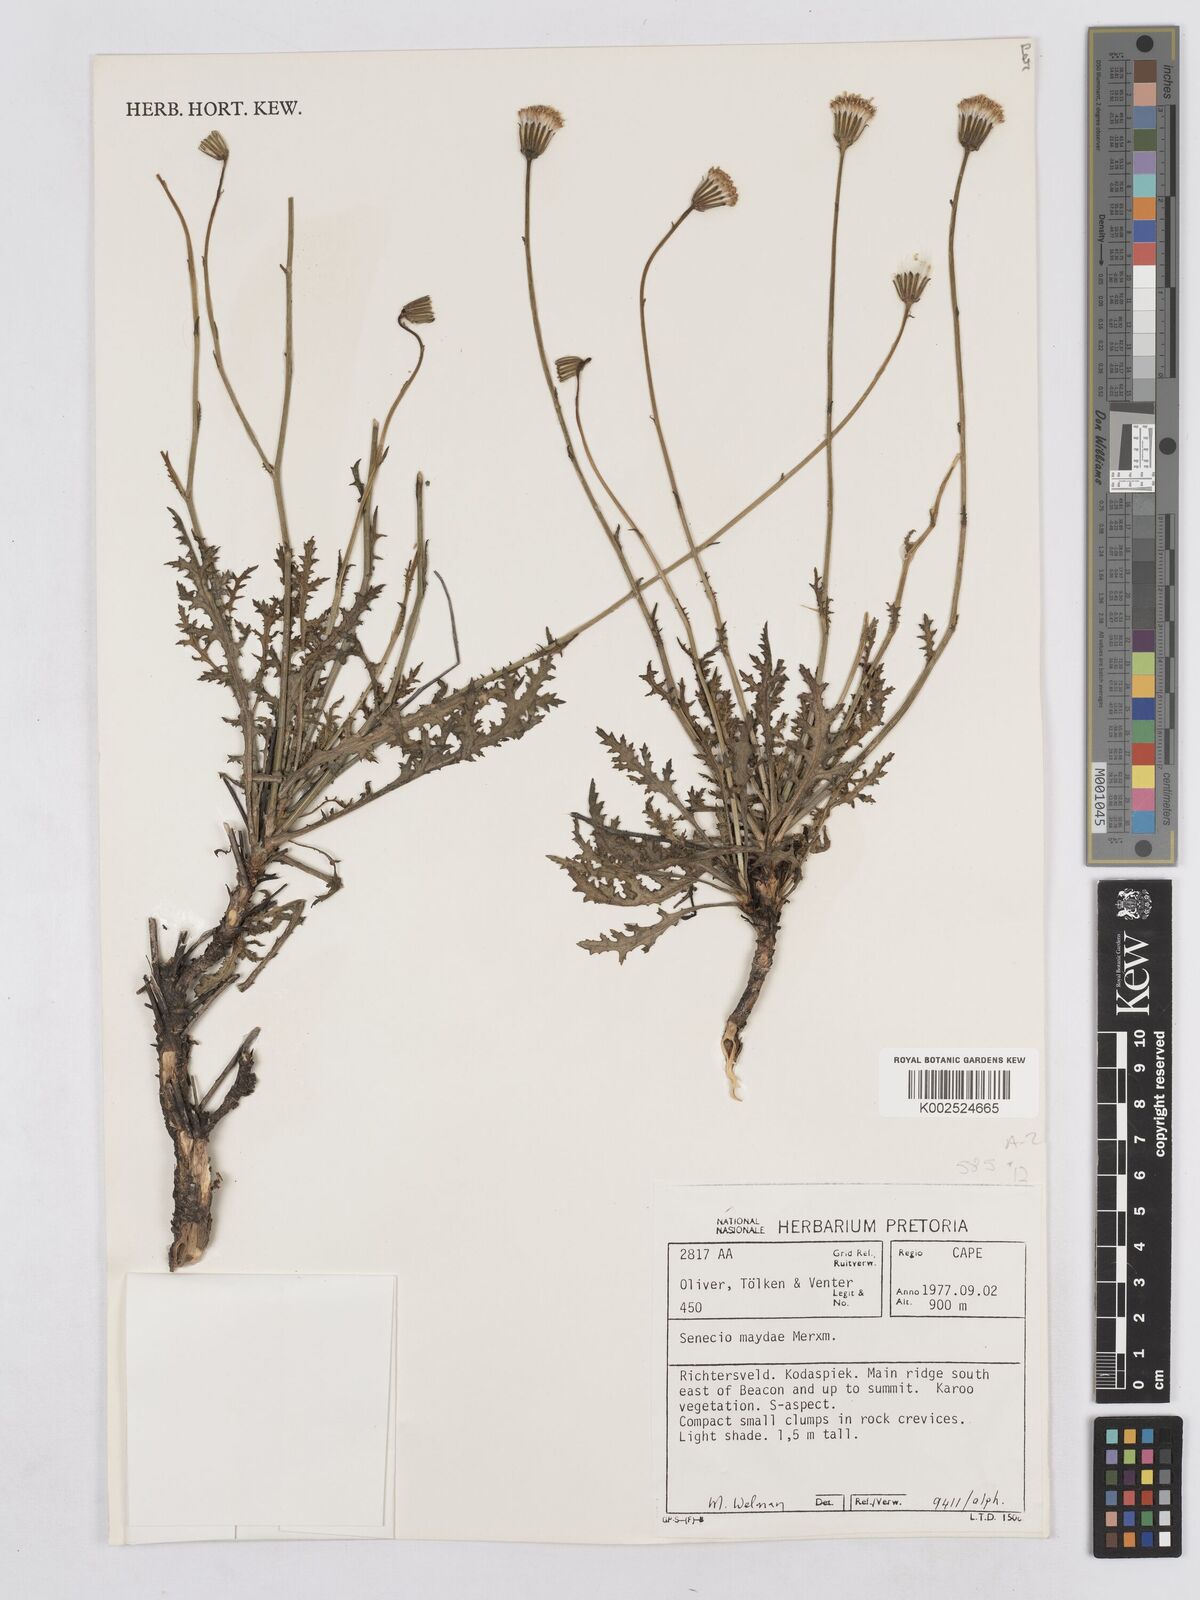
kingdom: Plantae
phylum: Tracheophyta
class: Magnoliopsida
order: Asterales
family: Asteraceae
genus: Senecio
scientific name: Senecio maydae
